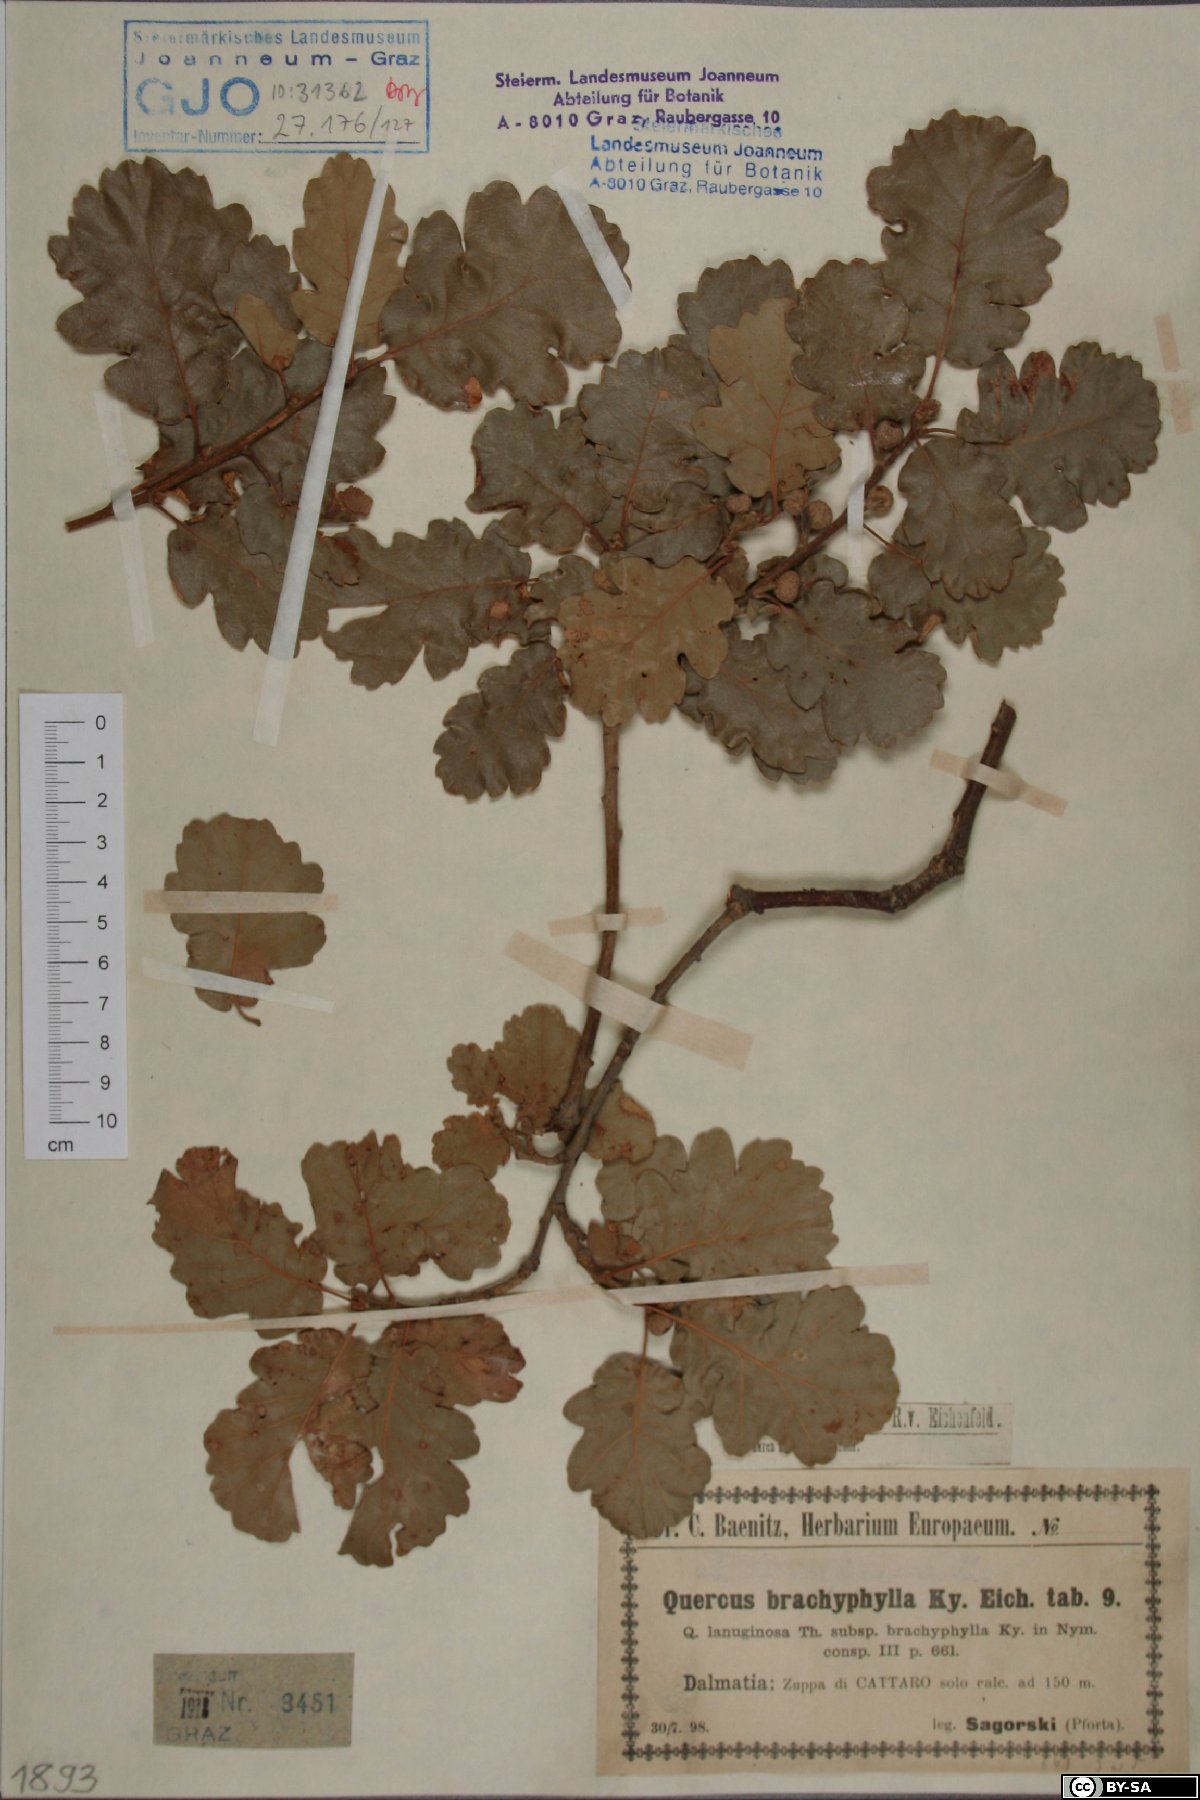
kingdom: Plantae
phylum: Tracheophyta
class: Magnoliopsida
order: Fagales
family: Fagaceae
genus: Quercus
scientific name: Quercus pubescens
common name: Downy oak
